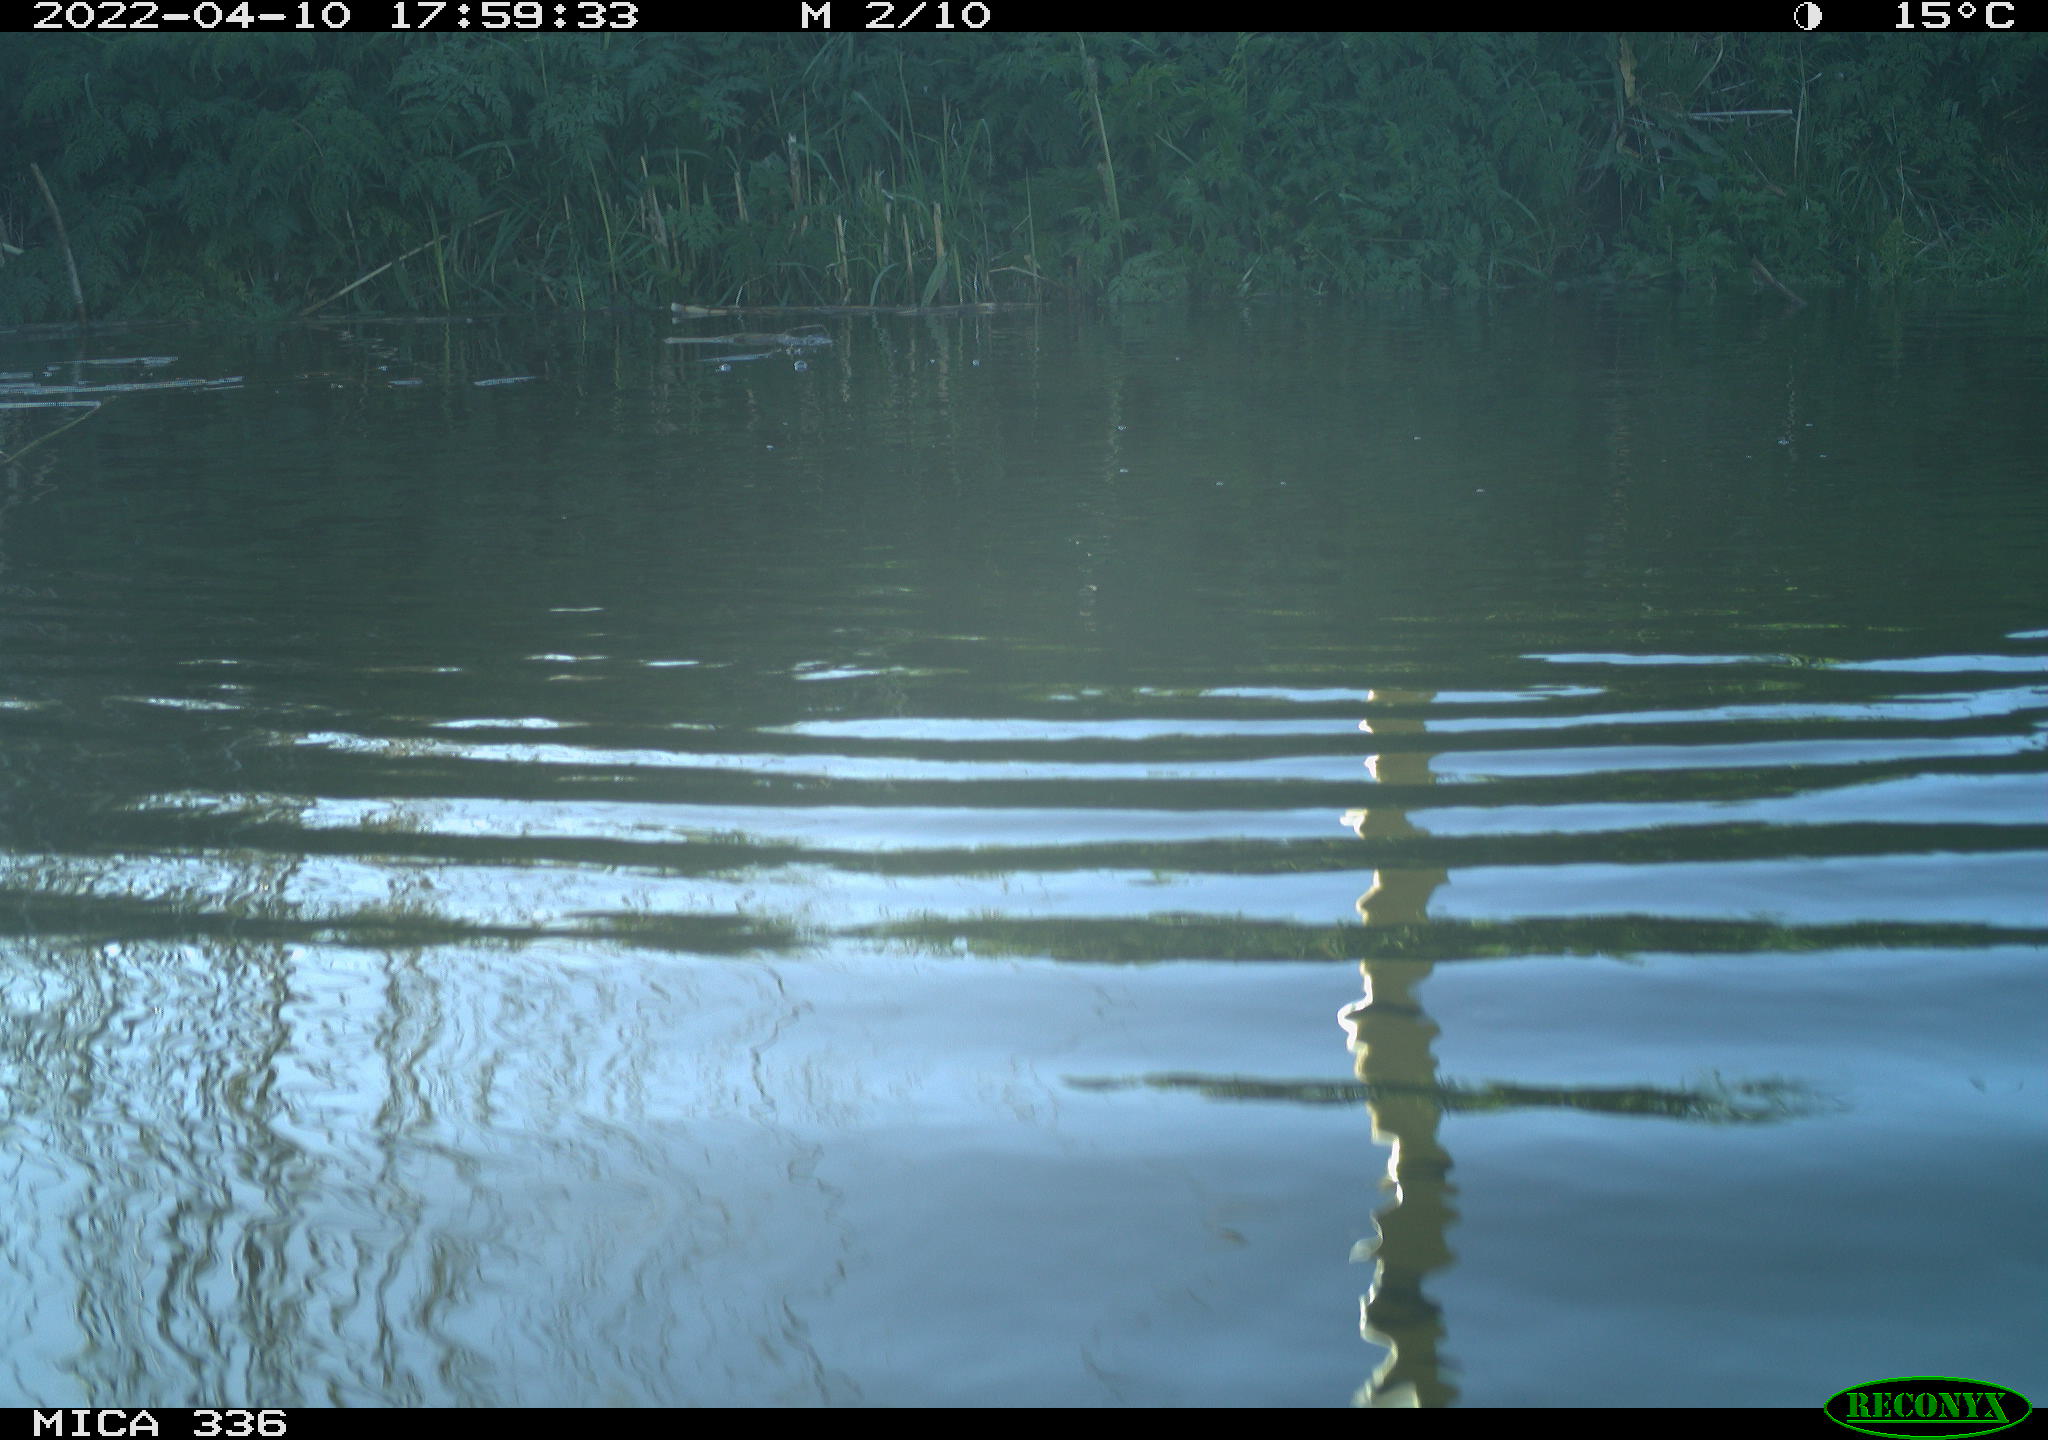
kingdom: Animalia
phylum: Chordata
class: Aves
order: Podicipediformes
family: Podicipedidae
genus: Podiceps
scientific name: Podiceps cristatus
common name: Great crested grebe
